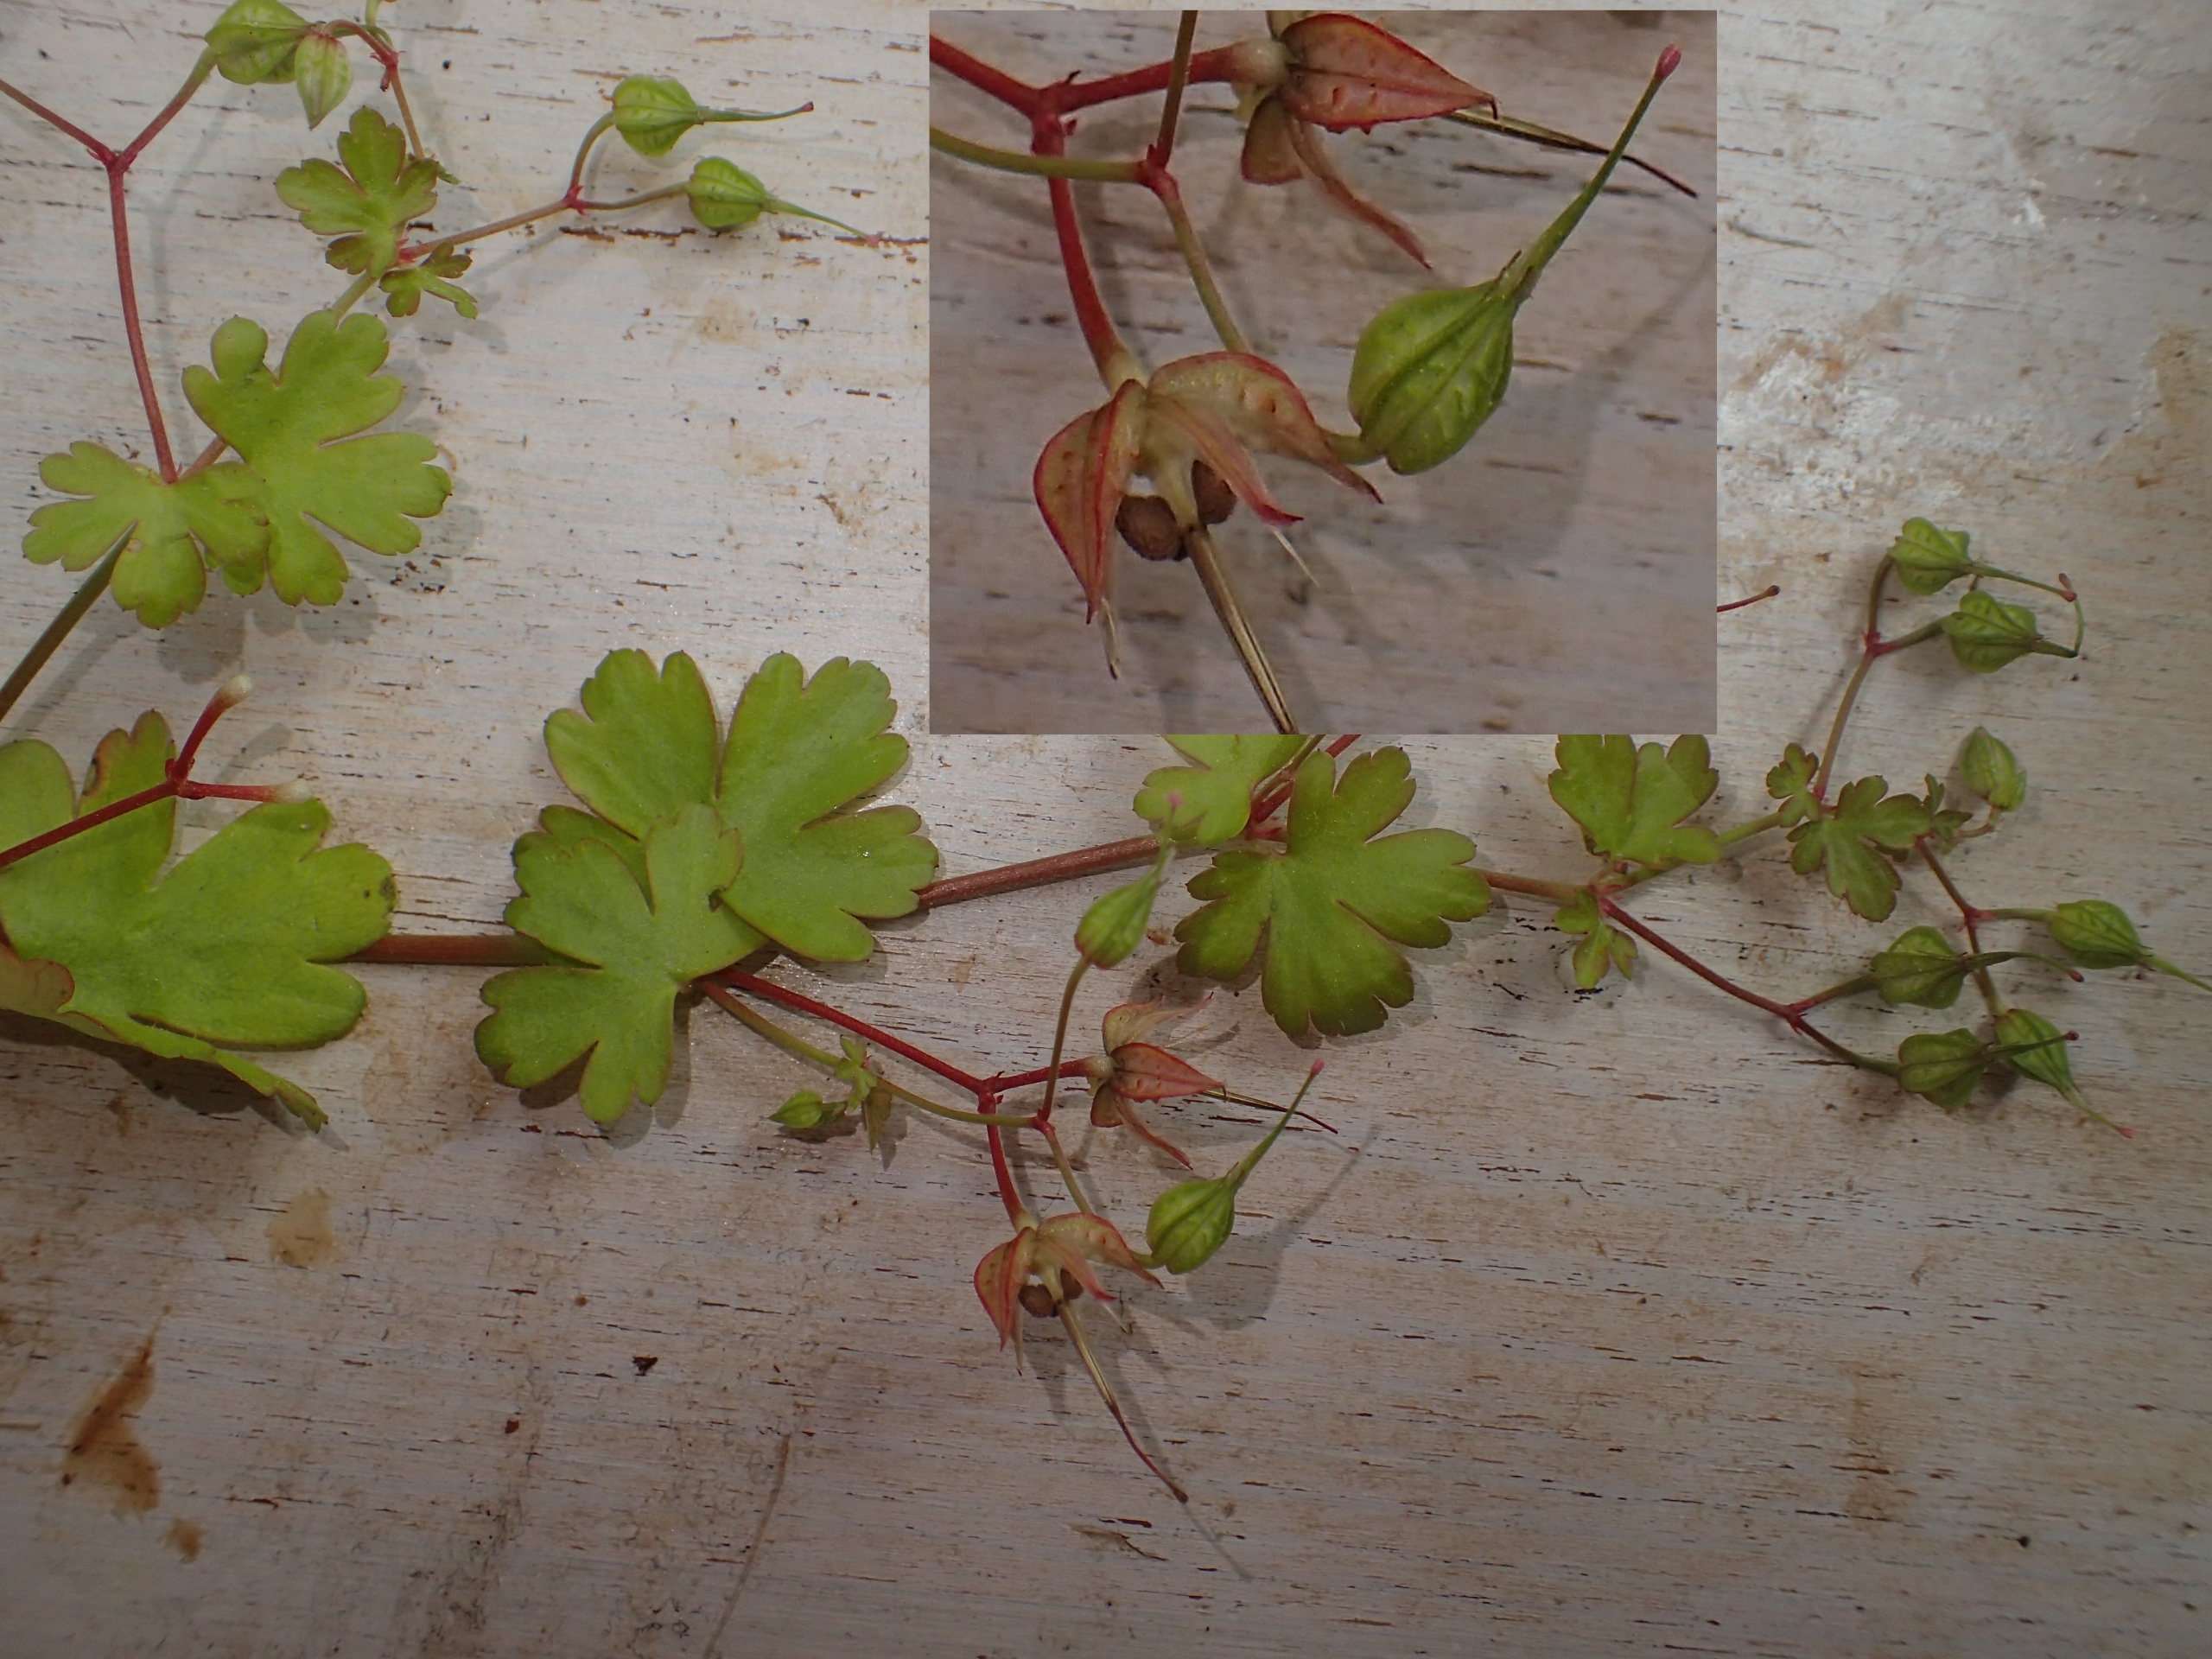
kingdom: Plantae
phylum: Tracheophyta
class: Magnoliopsida
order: Geraniales
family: Geraniaceae
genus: Geranium
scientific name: Geranium lucidum
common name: Skinnende storkenæb
